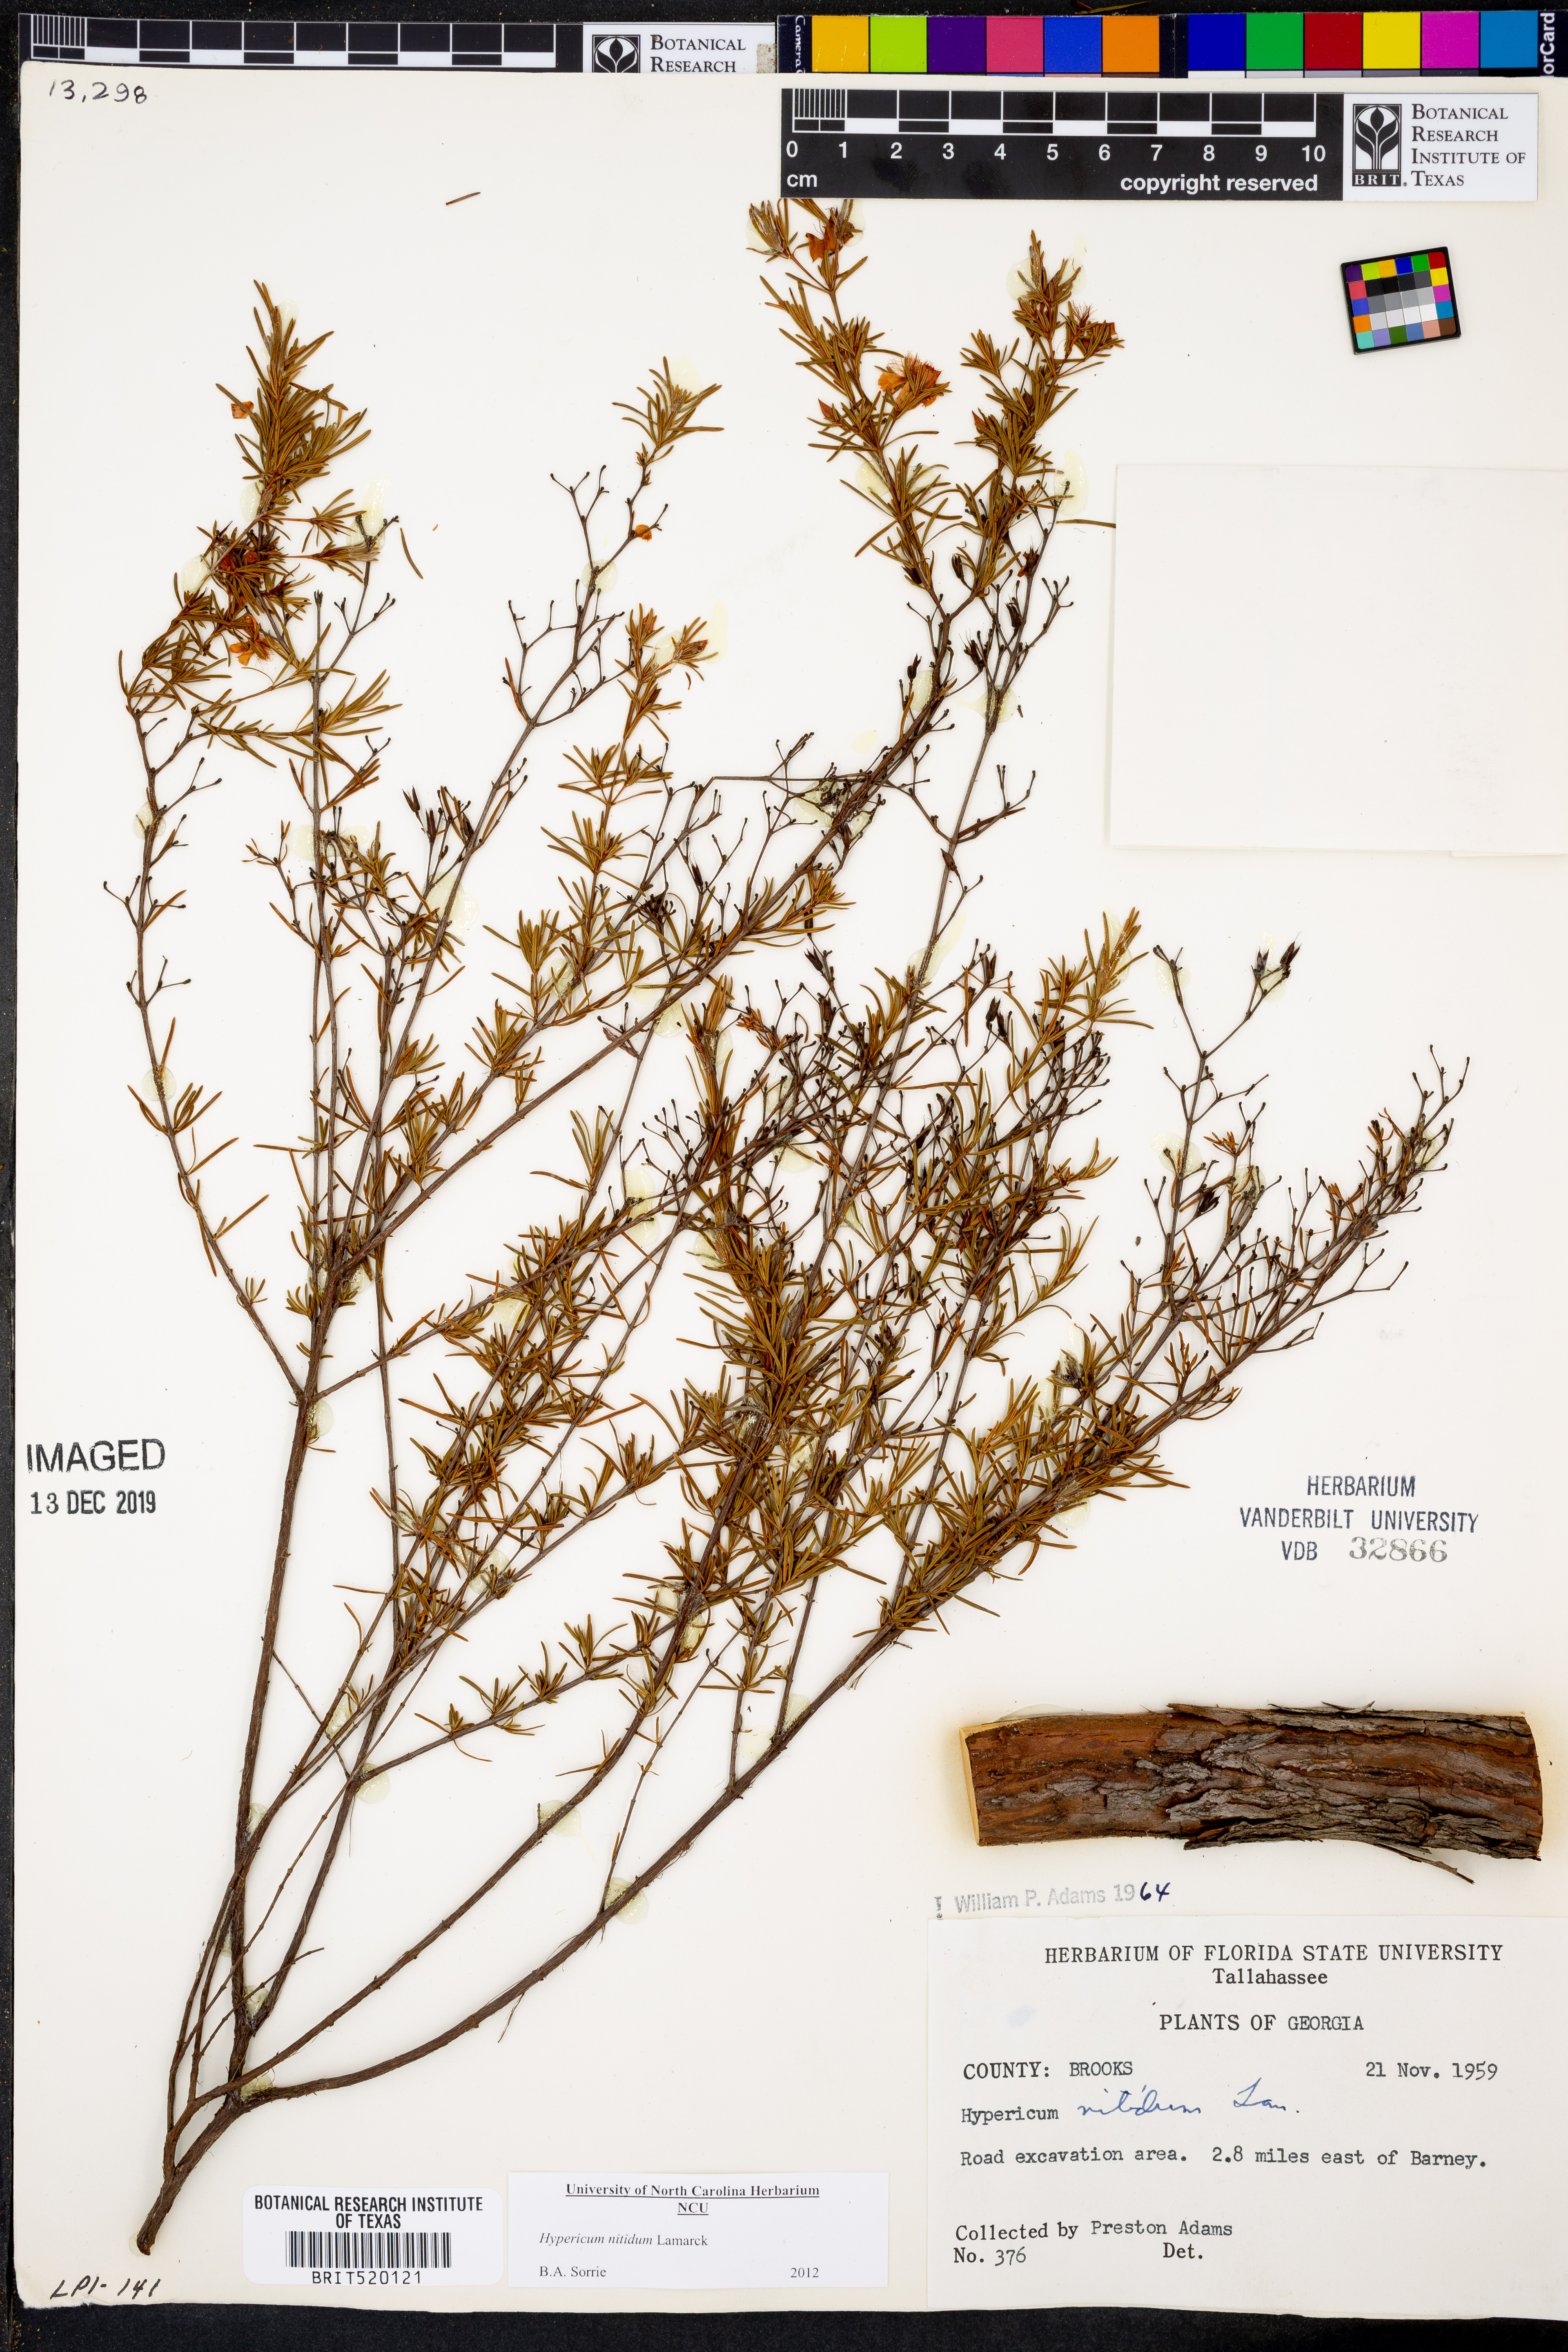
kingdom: Plantae
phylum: Tracheophyta
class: Magnoliopsida
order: Malpighiales
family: Hypericaceae
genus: Hypericum
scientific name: Hypericum nitidum
